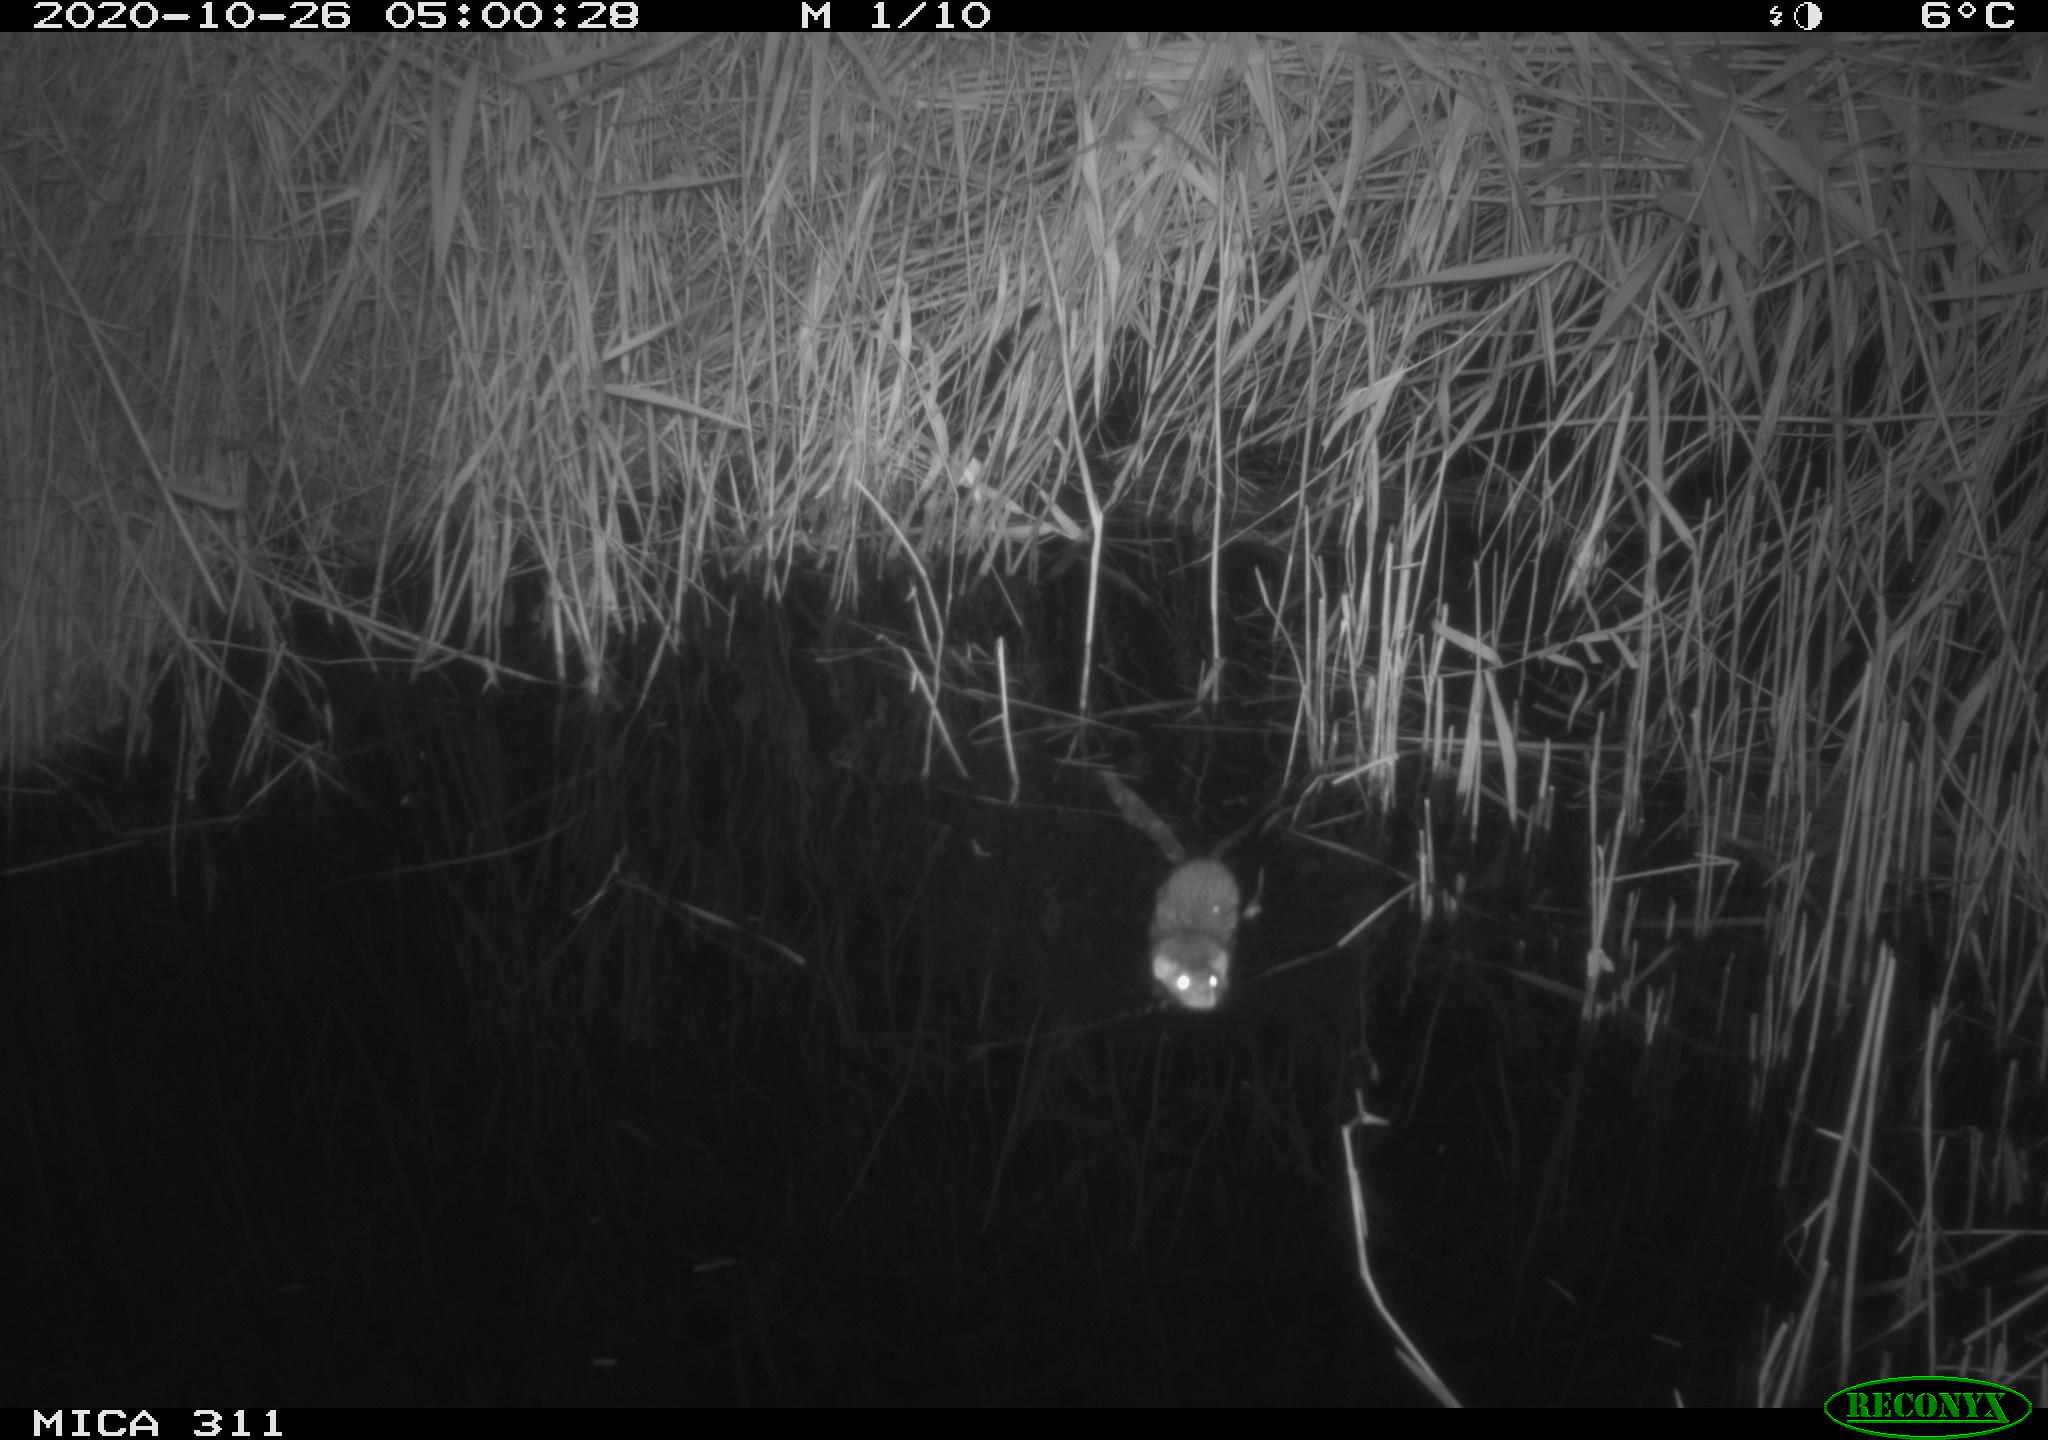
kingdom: Animalia
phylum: Chordata
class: Mammalia
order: Rodentia
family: Muridae
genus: Rattus
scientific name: Rattus norvegicus
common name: Brown rat
